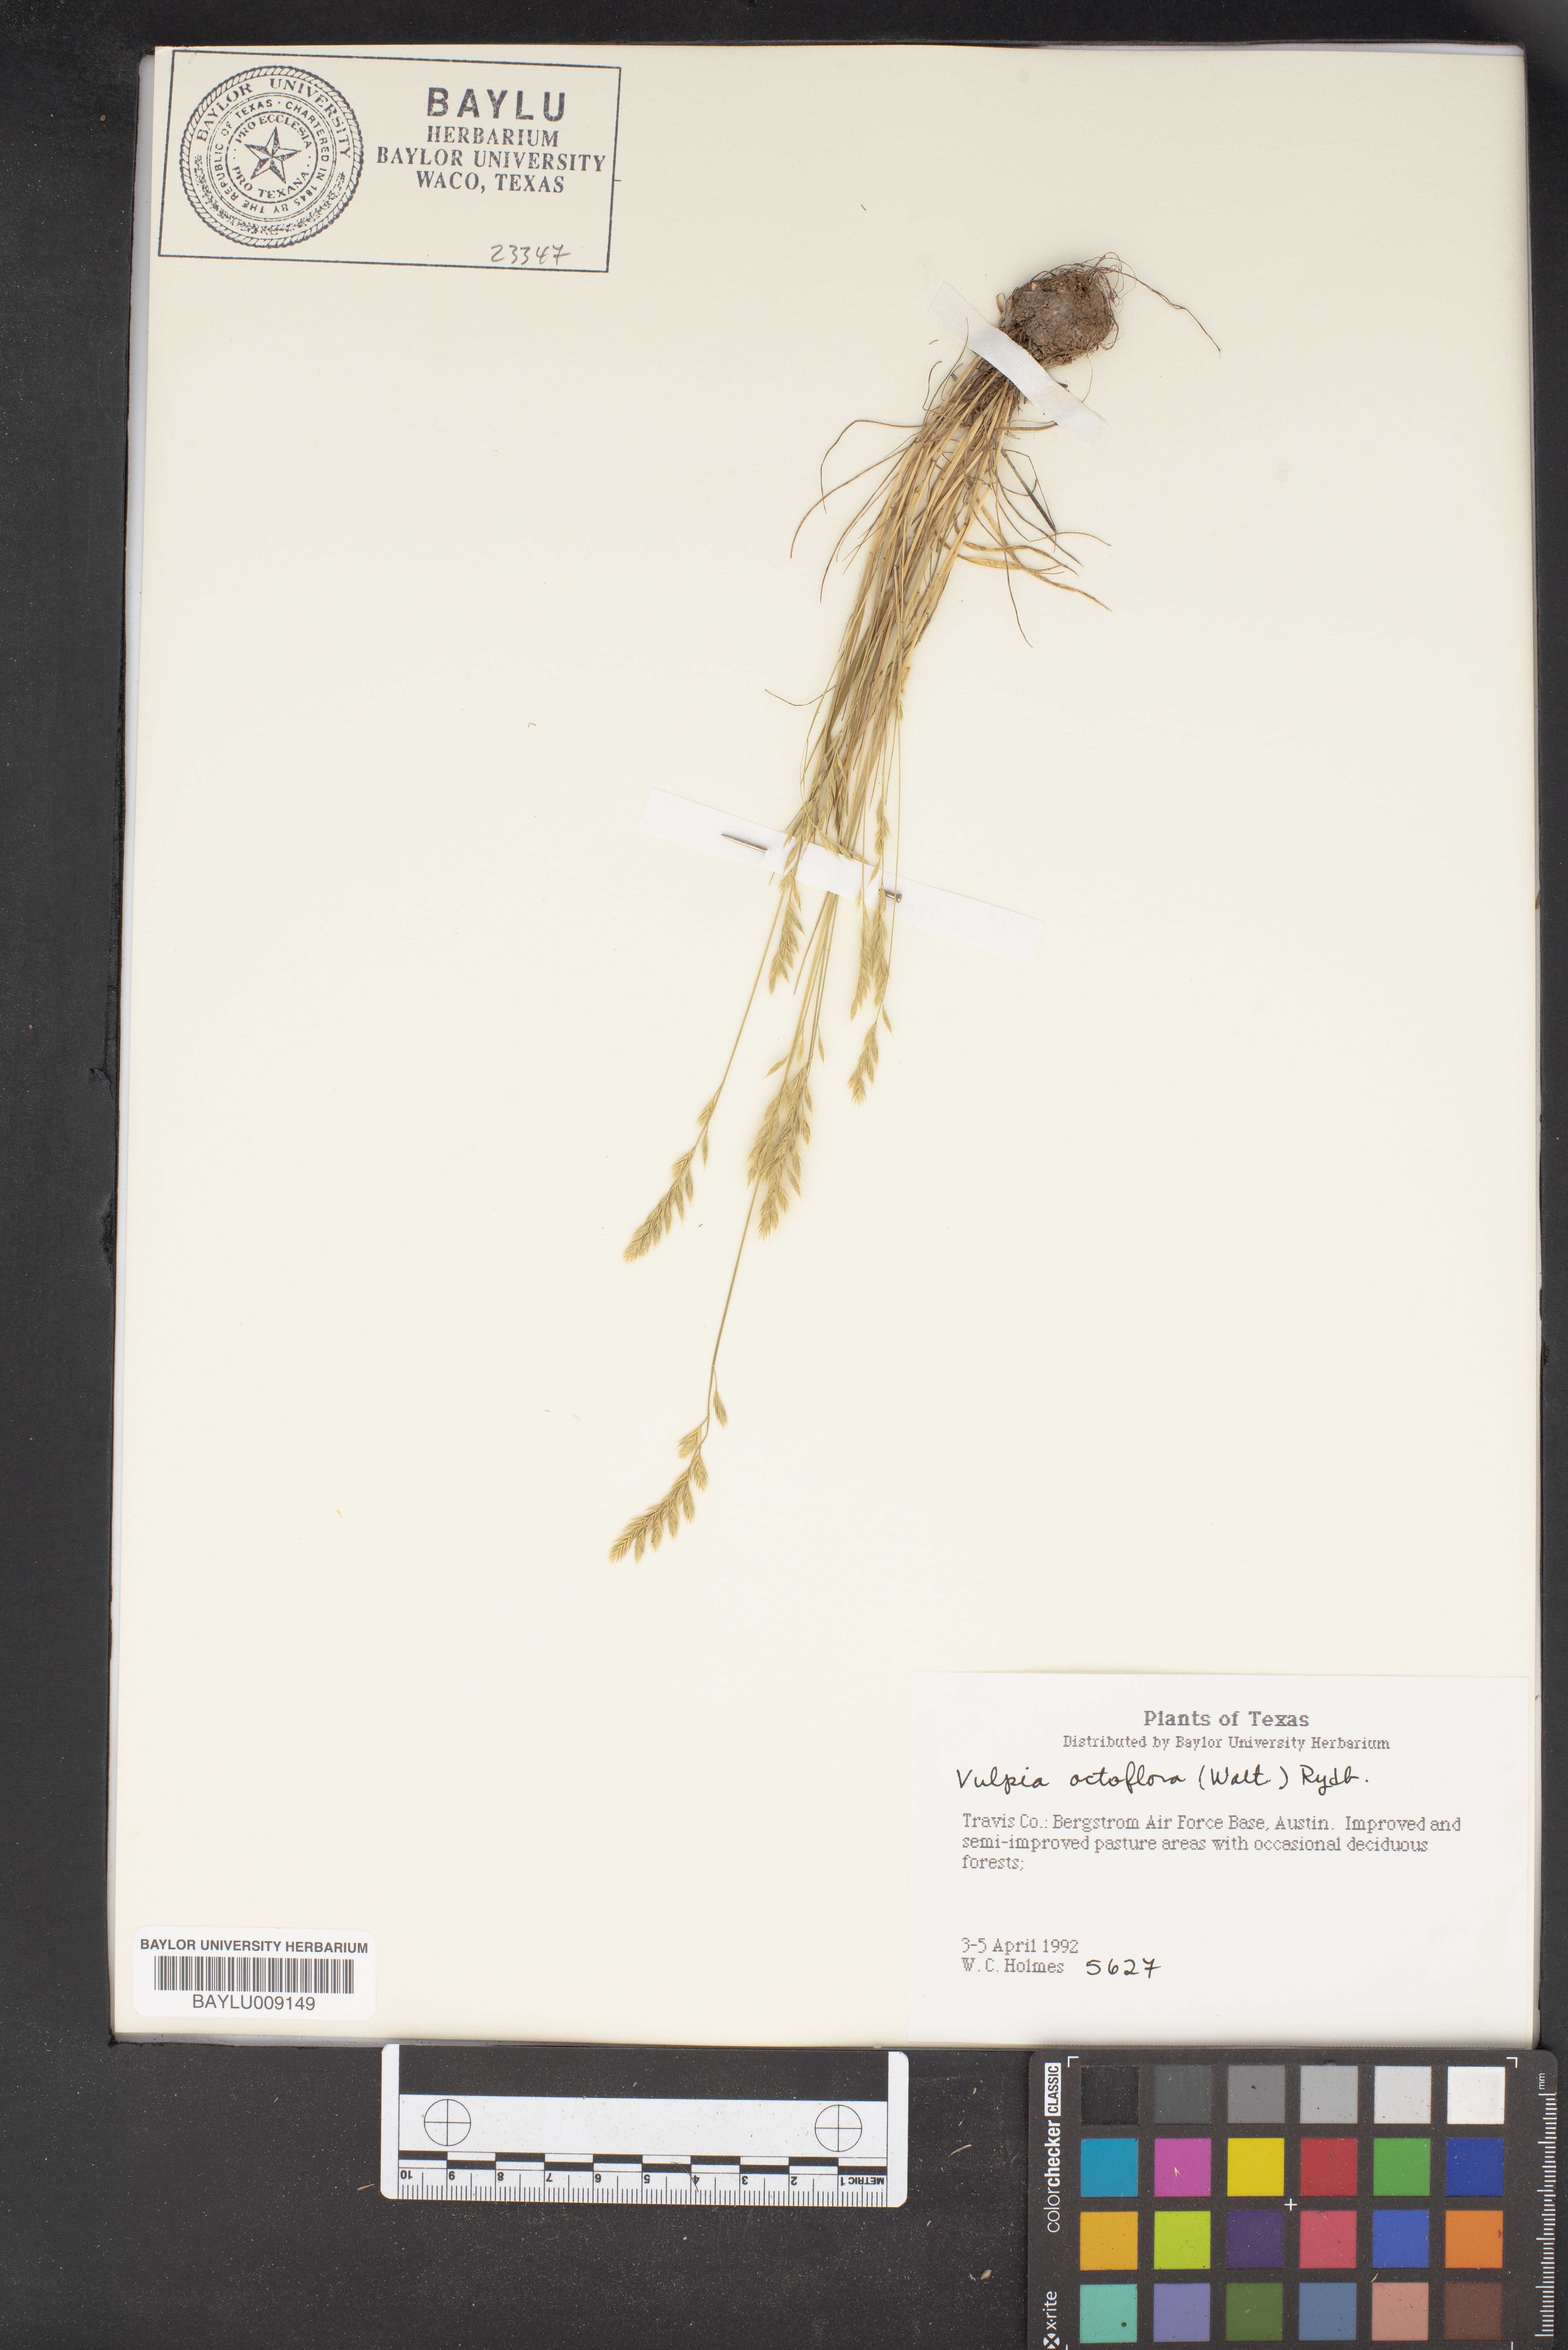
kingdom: Plantae
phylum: Tracheophyta
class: Liliopsida
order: Poales
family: Poaceae
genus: Festuca
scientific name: Festuca octoflora
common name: Sixweeks grass
